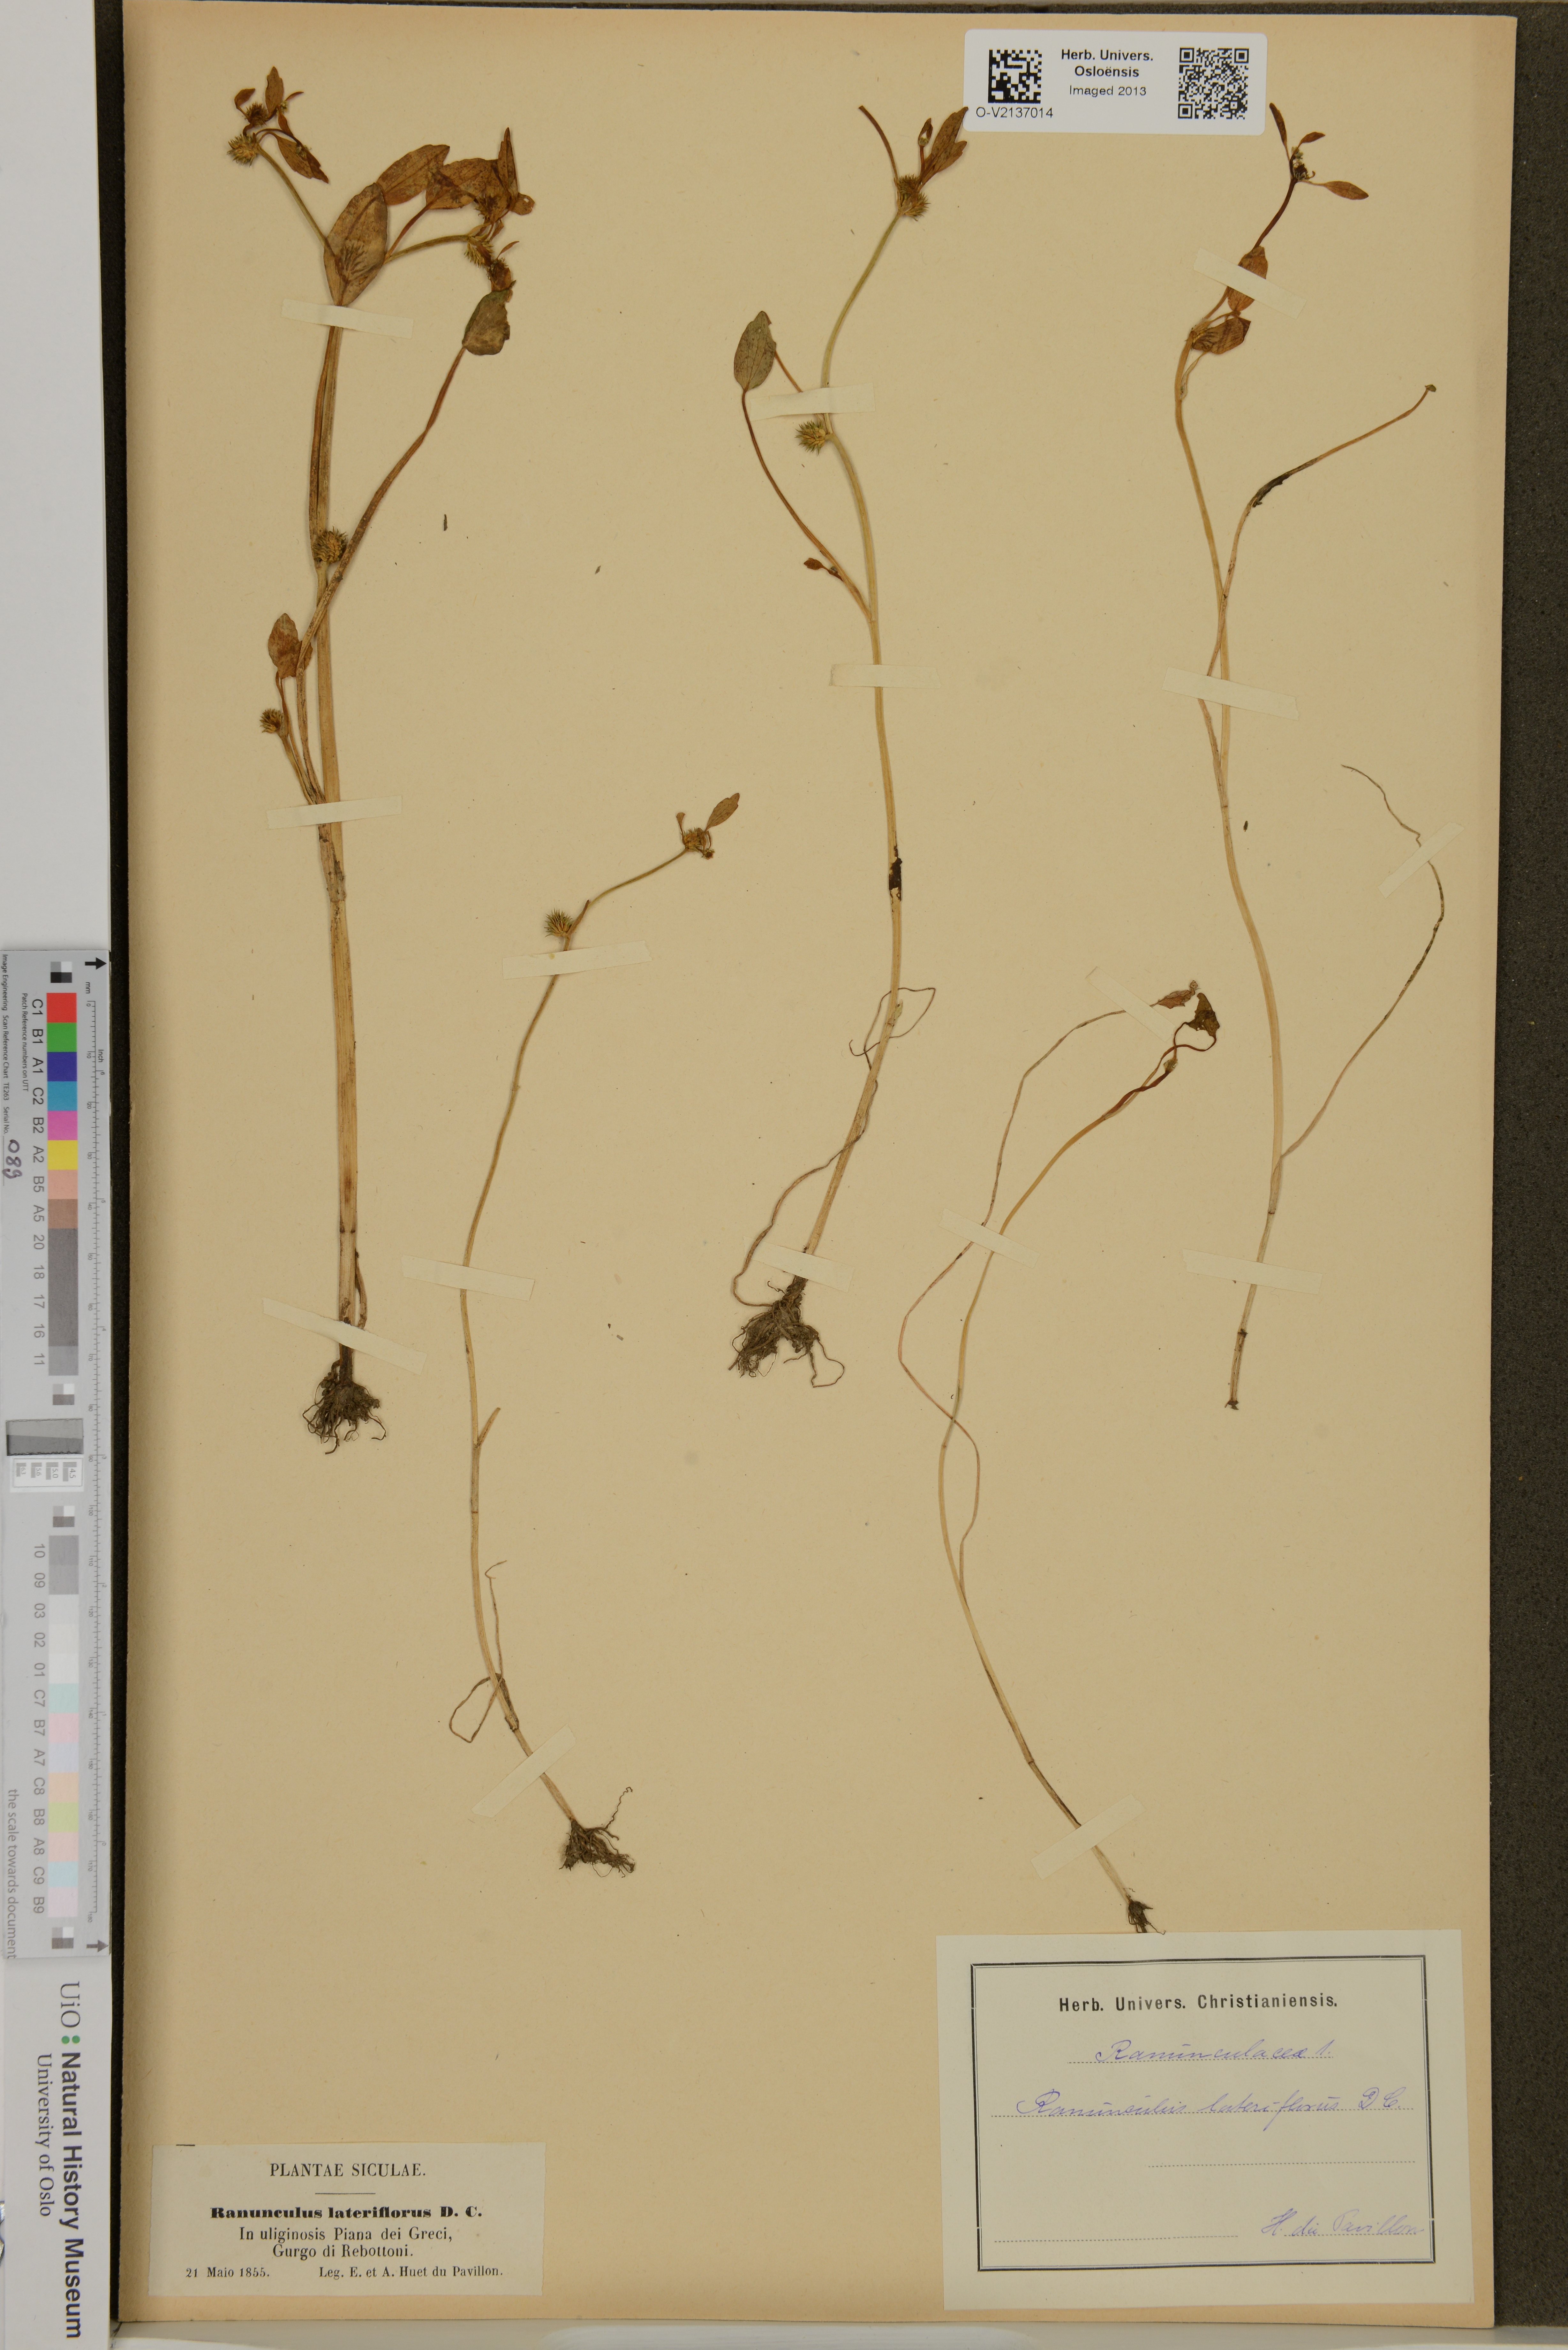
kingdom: Plantae
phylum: Tracheophyta
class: Magnoliopsida
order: Ranunculales
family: Ranunculaceae
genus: Ranunculus
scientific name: Ranunculus lateriflorus
